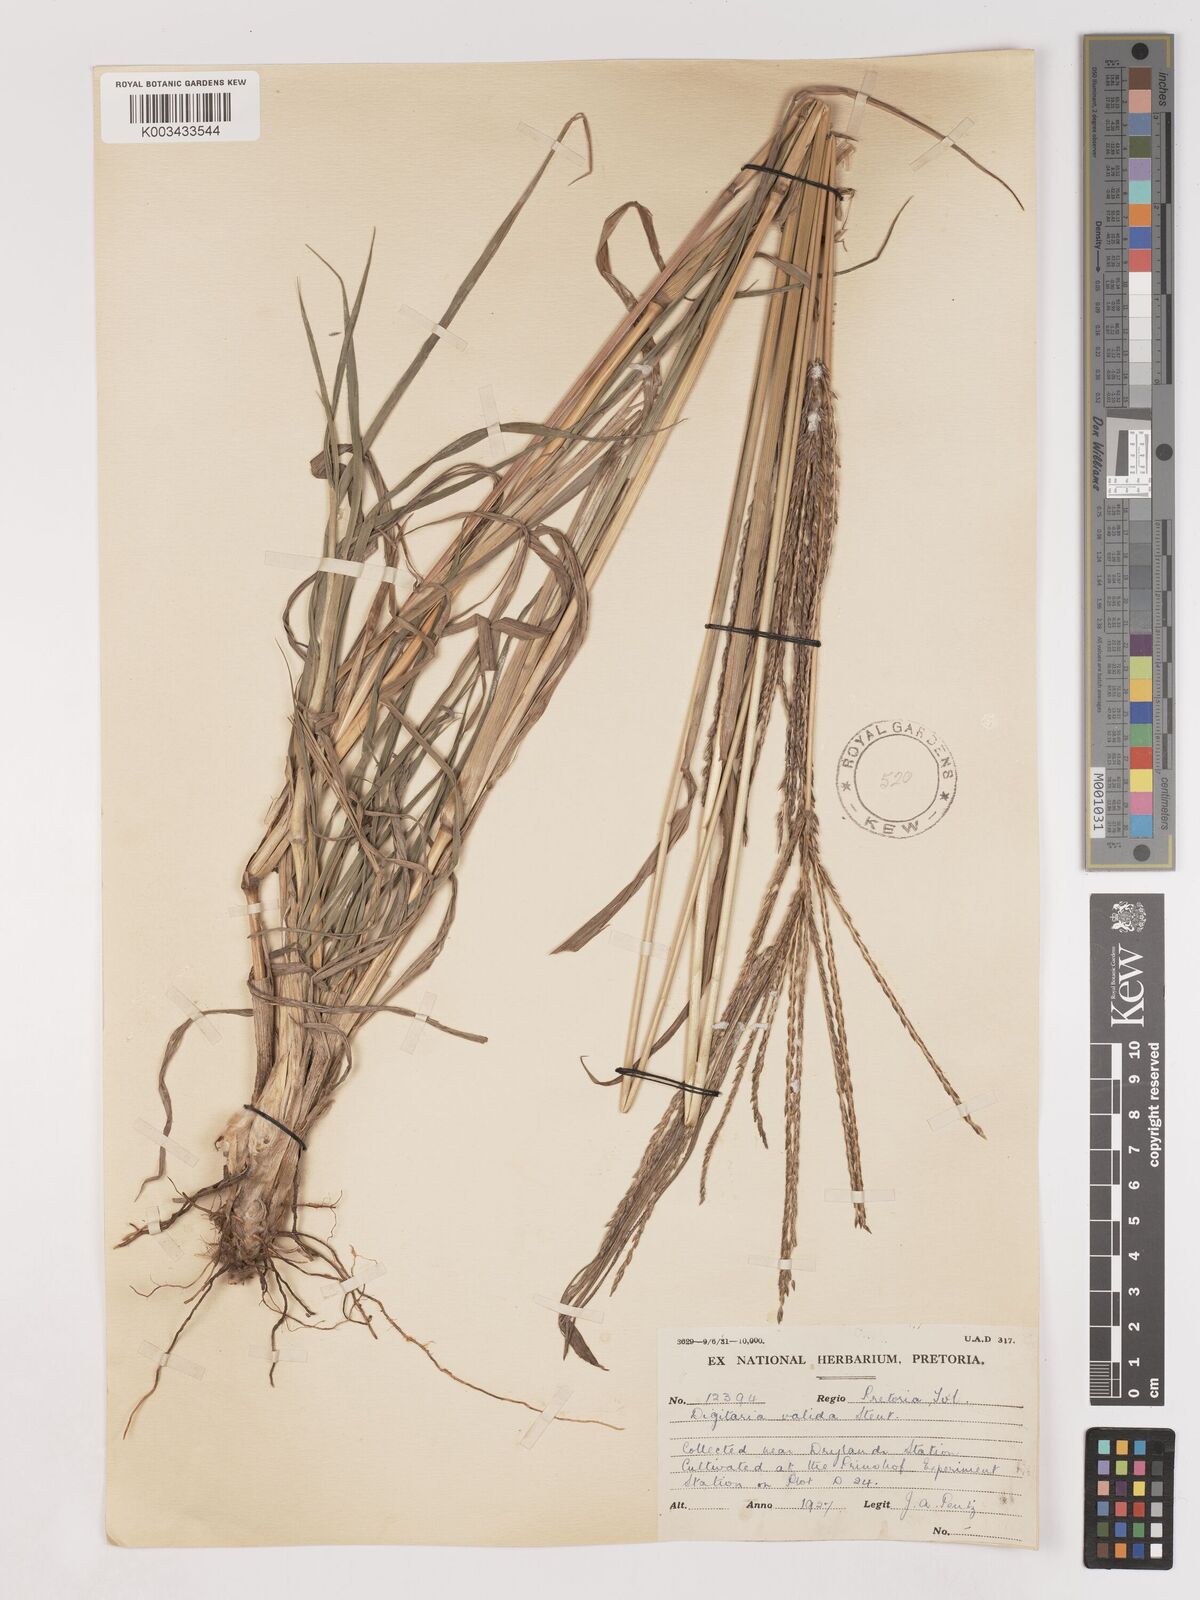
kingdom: Plantae
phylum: Tracheophyta
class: Liliopsida
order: Poales
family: Poaceae
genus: Digitaria
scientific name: Digitaria eriantha
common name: Digitgrass
